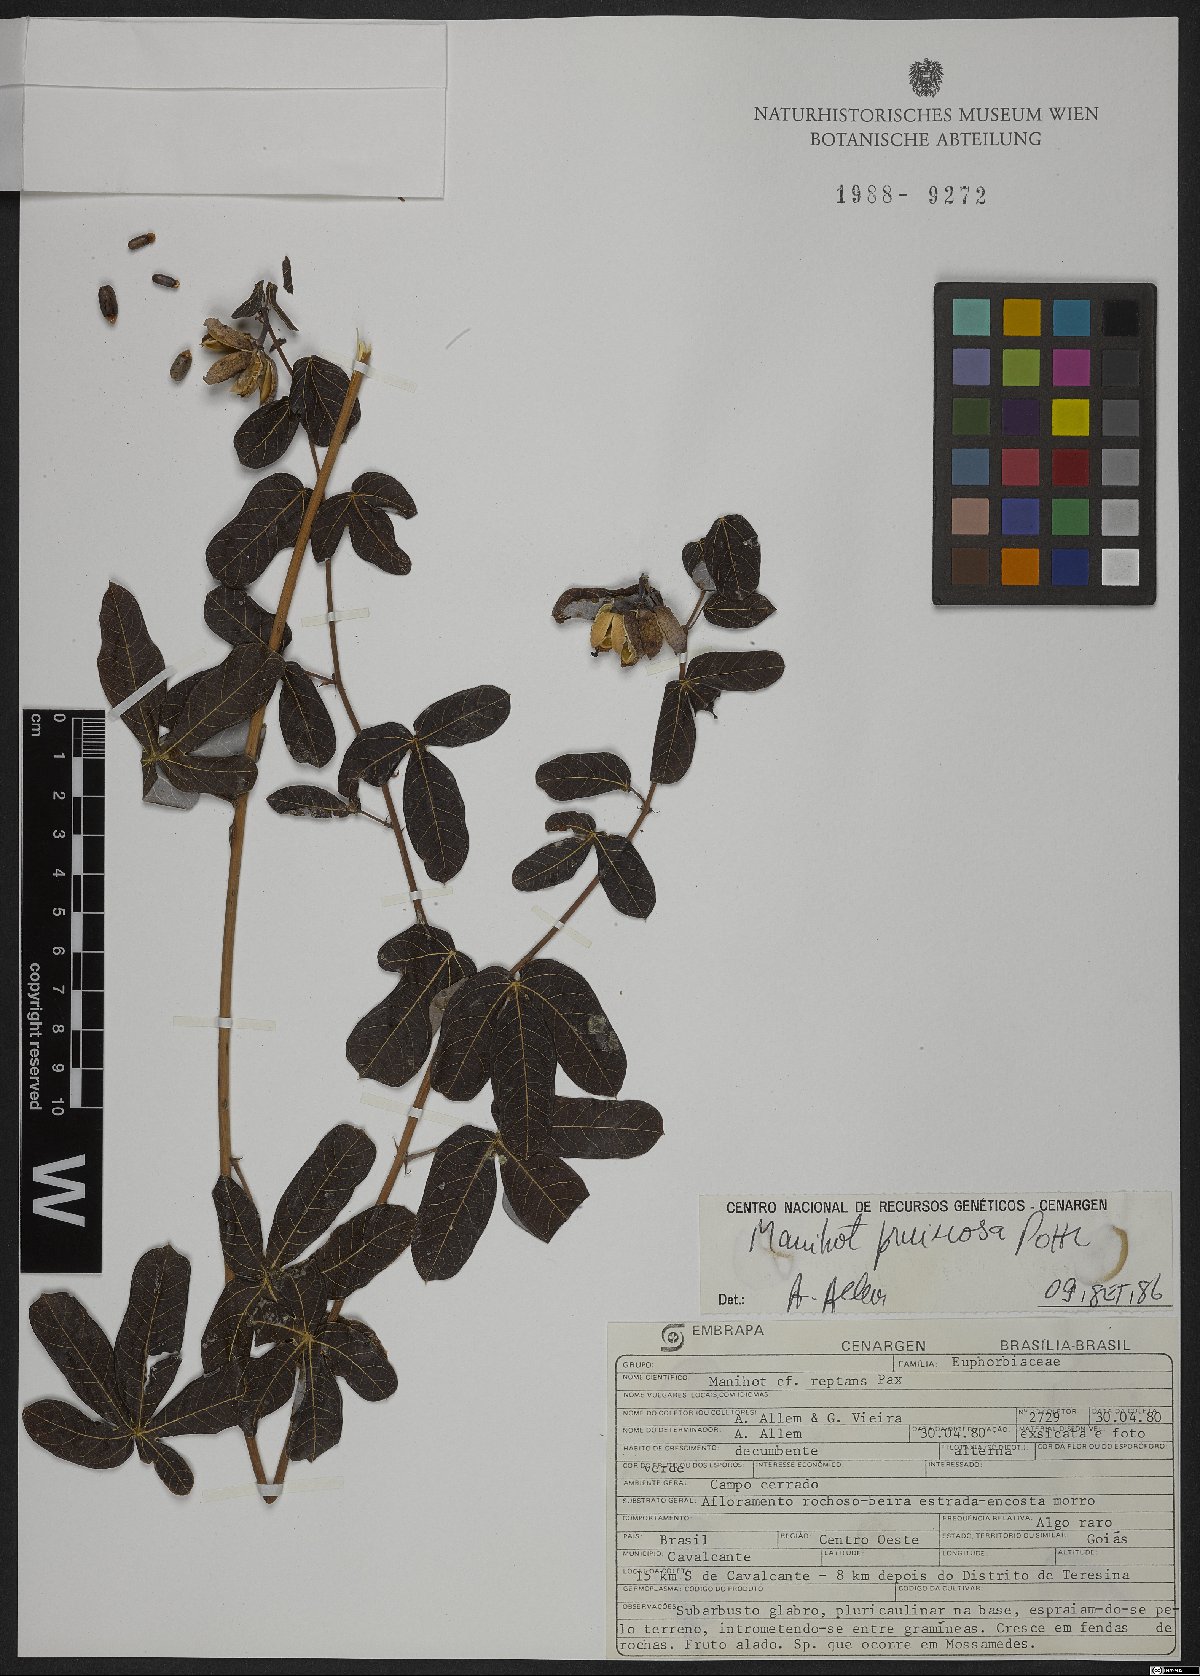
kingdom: Plantae
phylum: Tracheophyta
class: Magnoliopsida
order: Malpighiales
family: Euphorbiaceae
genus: Manihot
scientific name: Manihot pruinosa
